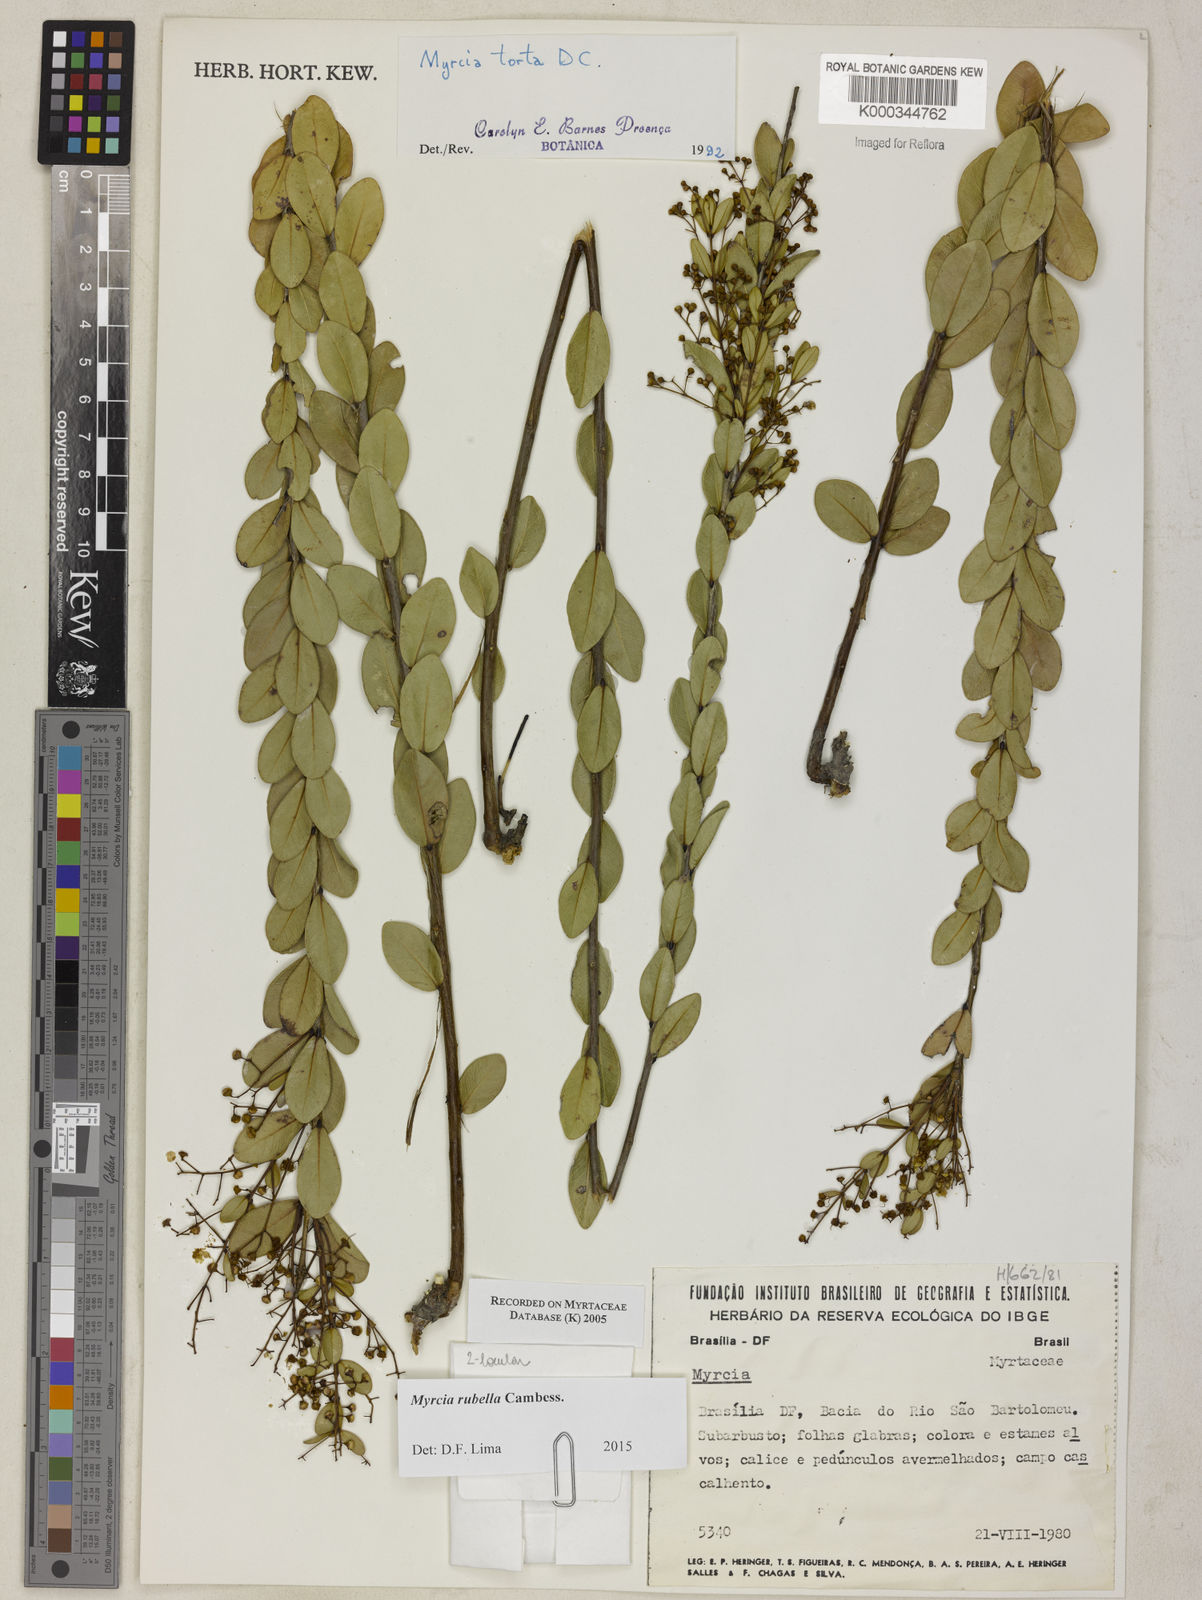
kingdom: Plantae
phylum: Tracheophyta
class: Magnoliopsida
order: Myrtales
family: Myrtaceae
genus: Myrcia
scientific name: Myrcia guianensis
